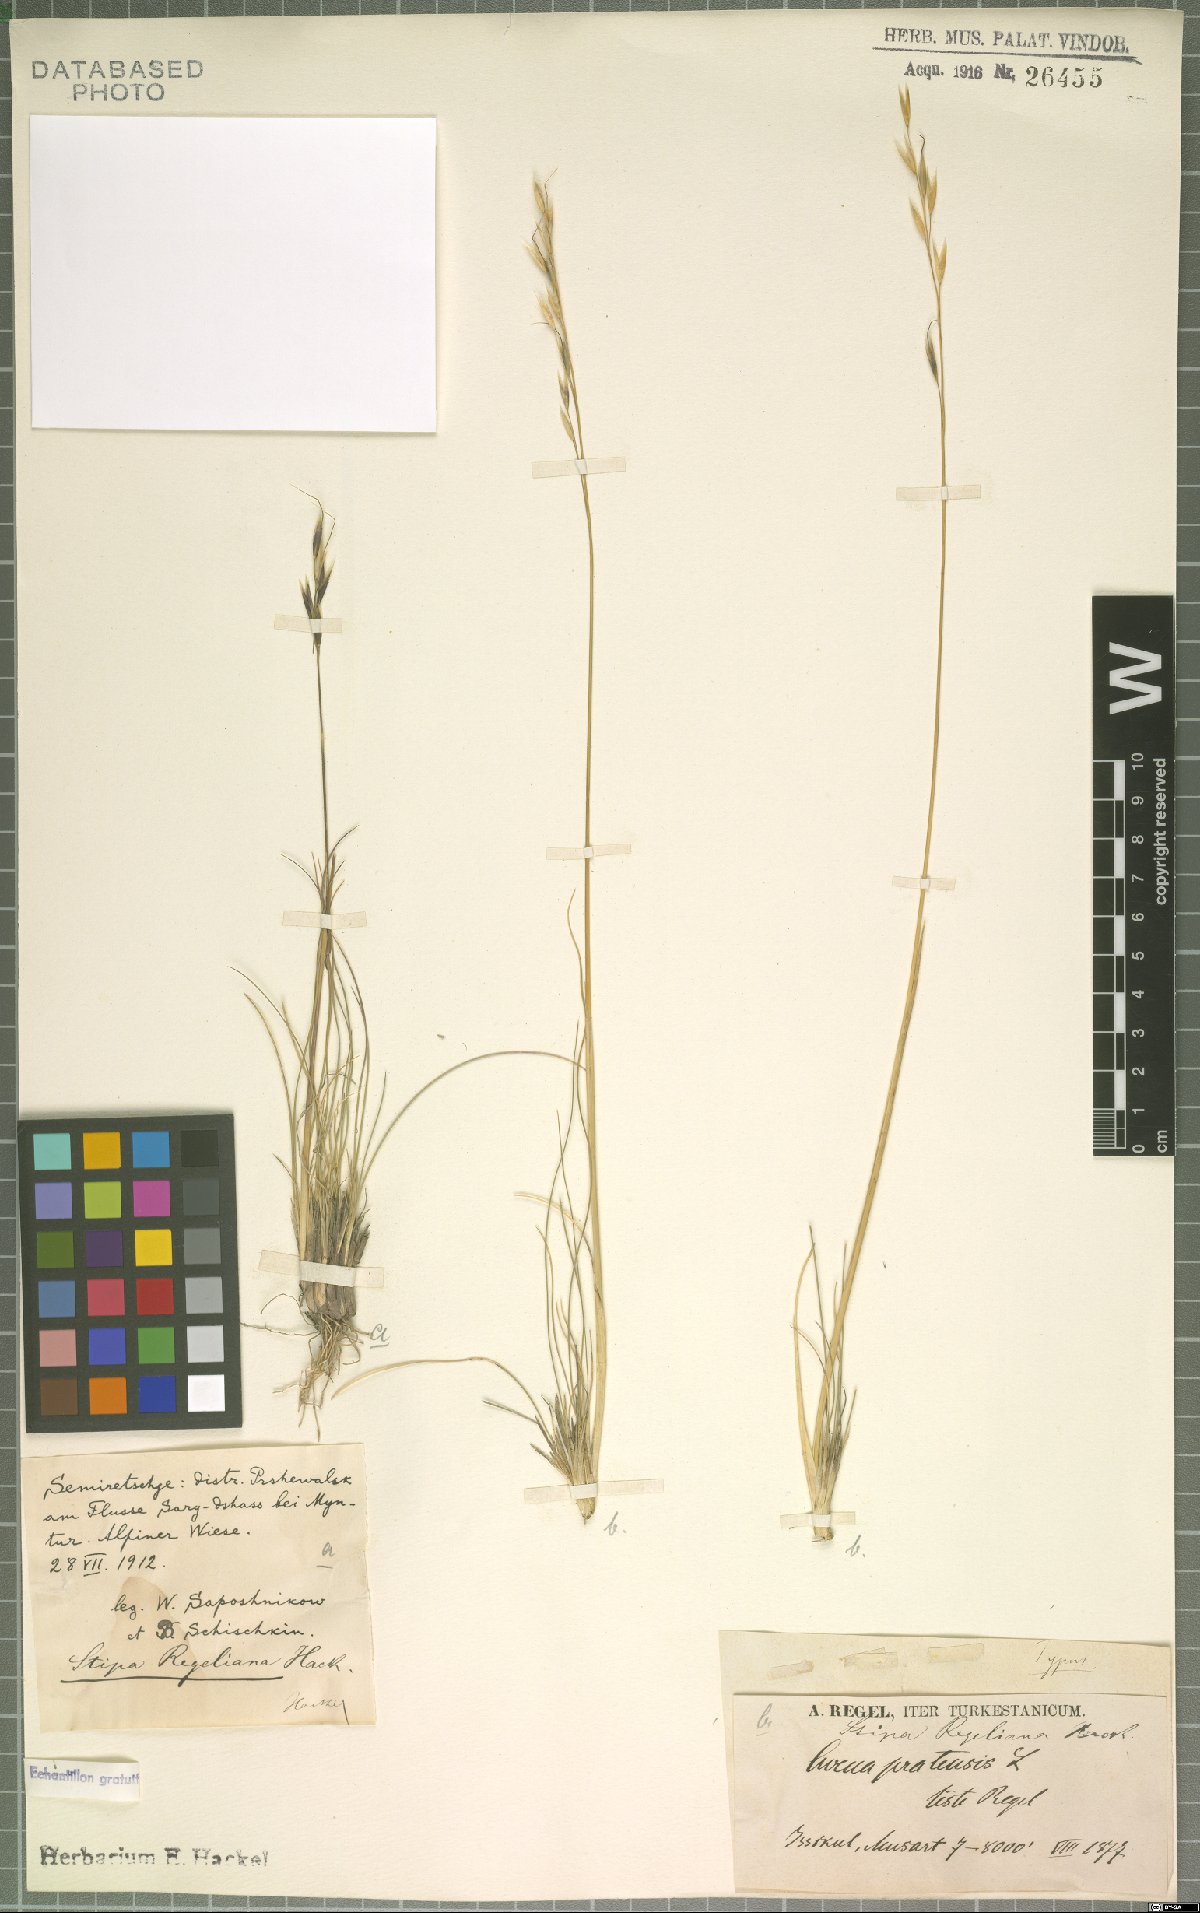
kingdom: Plantae
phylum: Tracheophyta
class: Liliopsida
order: Poales
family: Poaceae
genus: Stipa
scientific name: Stipa regeliana
